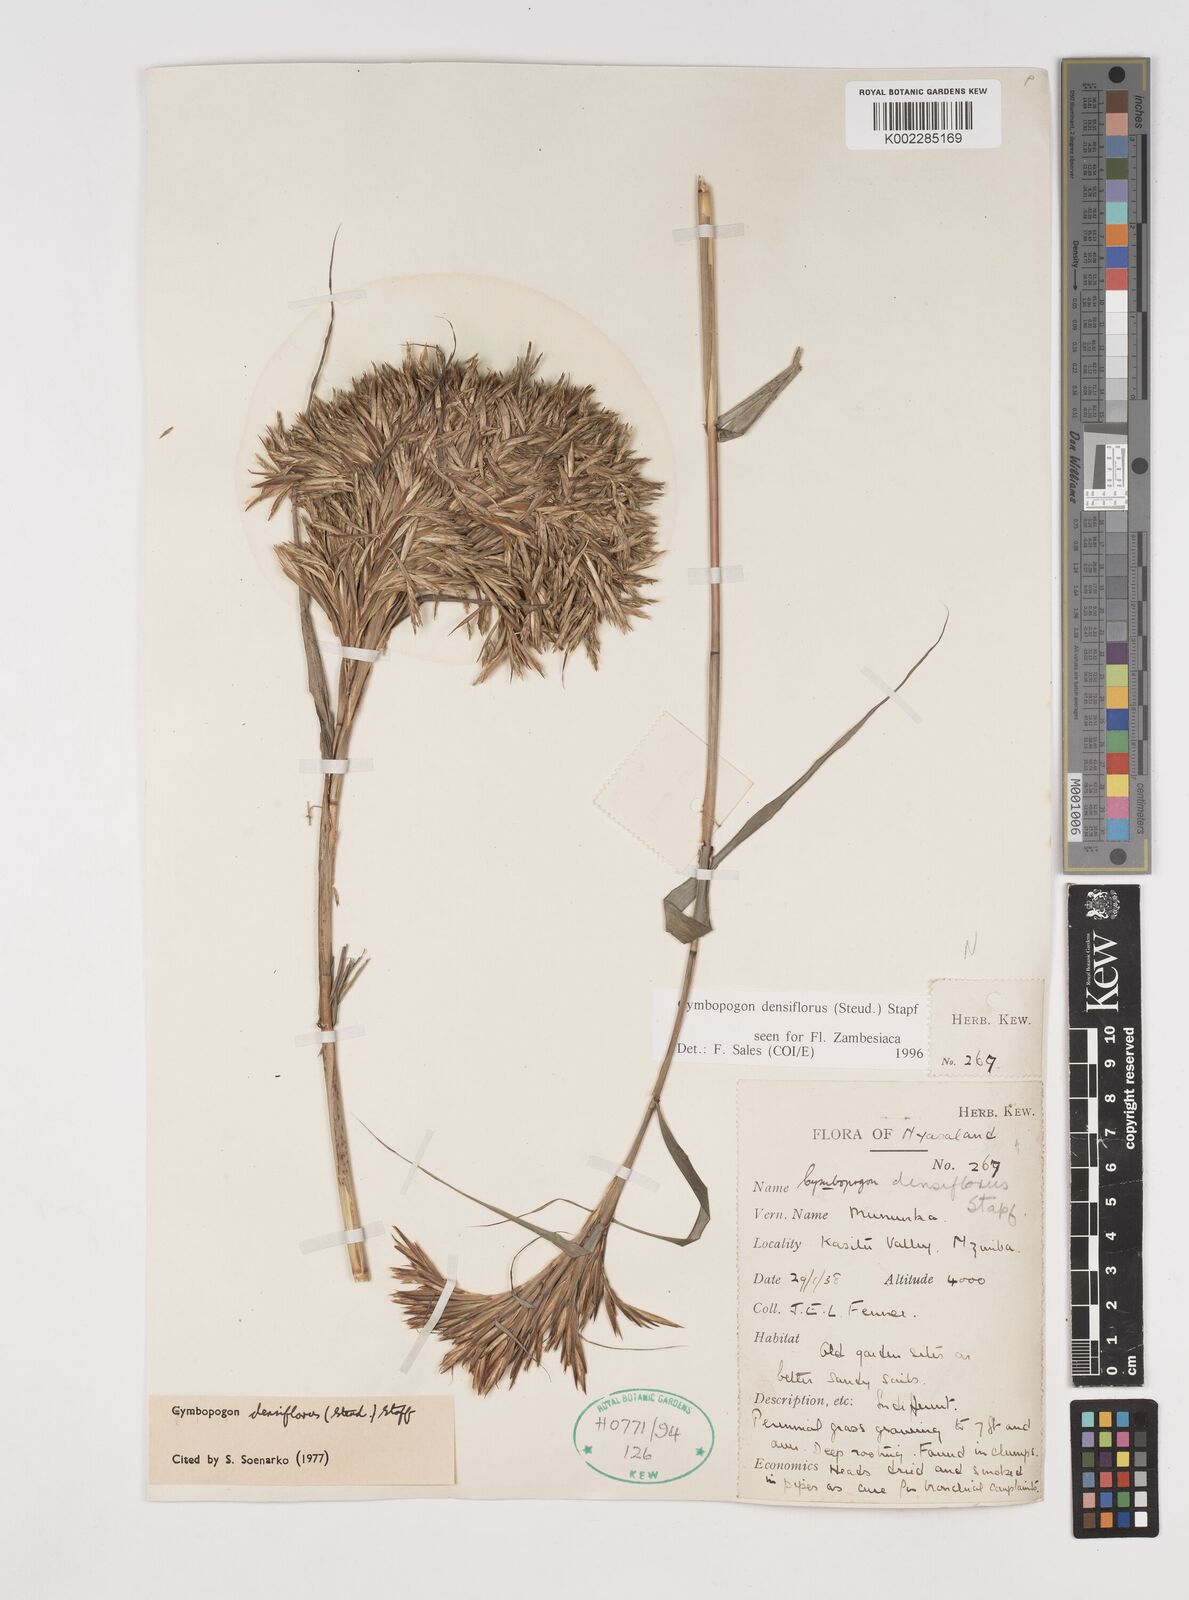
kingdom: Plantae
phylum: Tracheophyta
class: Liliopsida
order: Poales
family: Poaceae
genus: Cymbopogon
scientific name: Cymbopogon densiflorus
